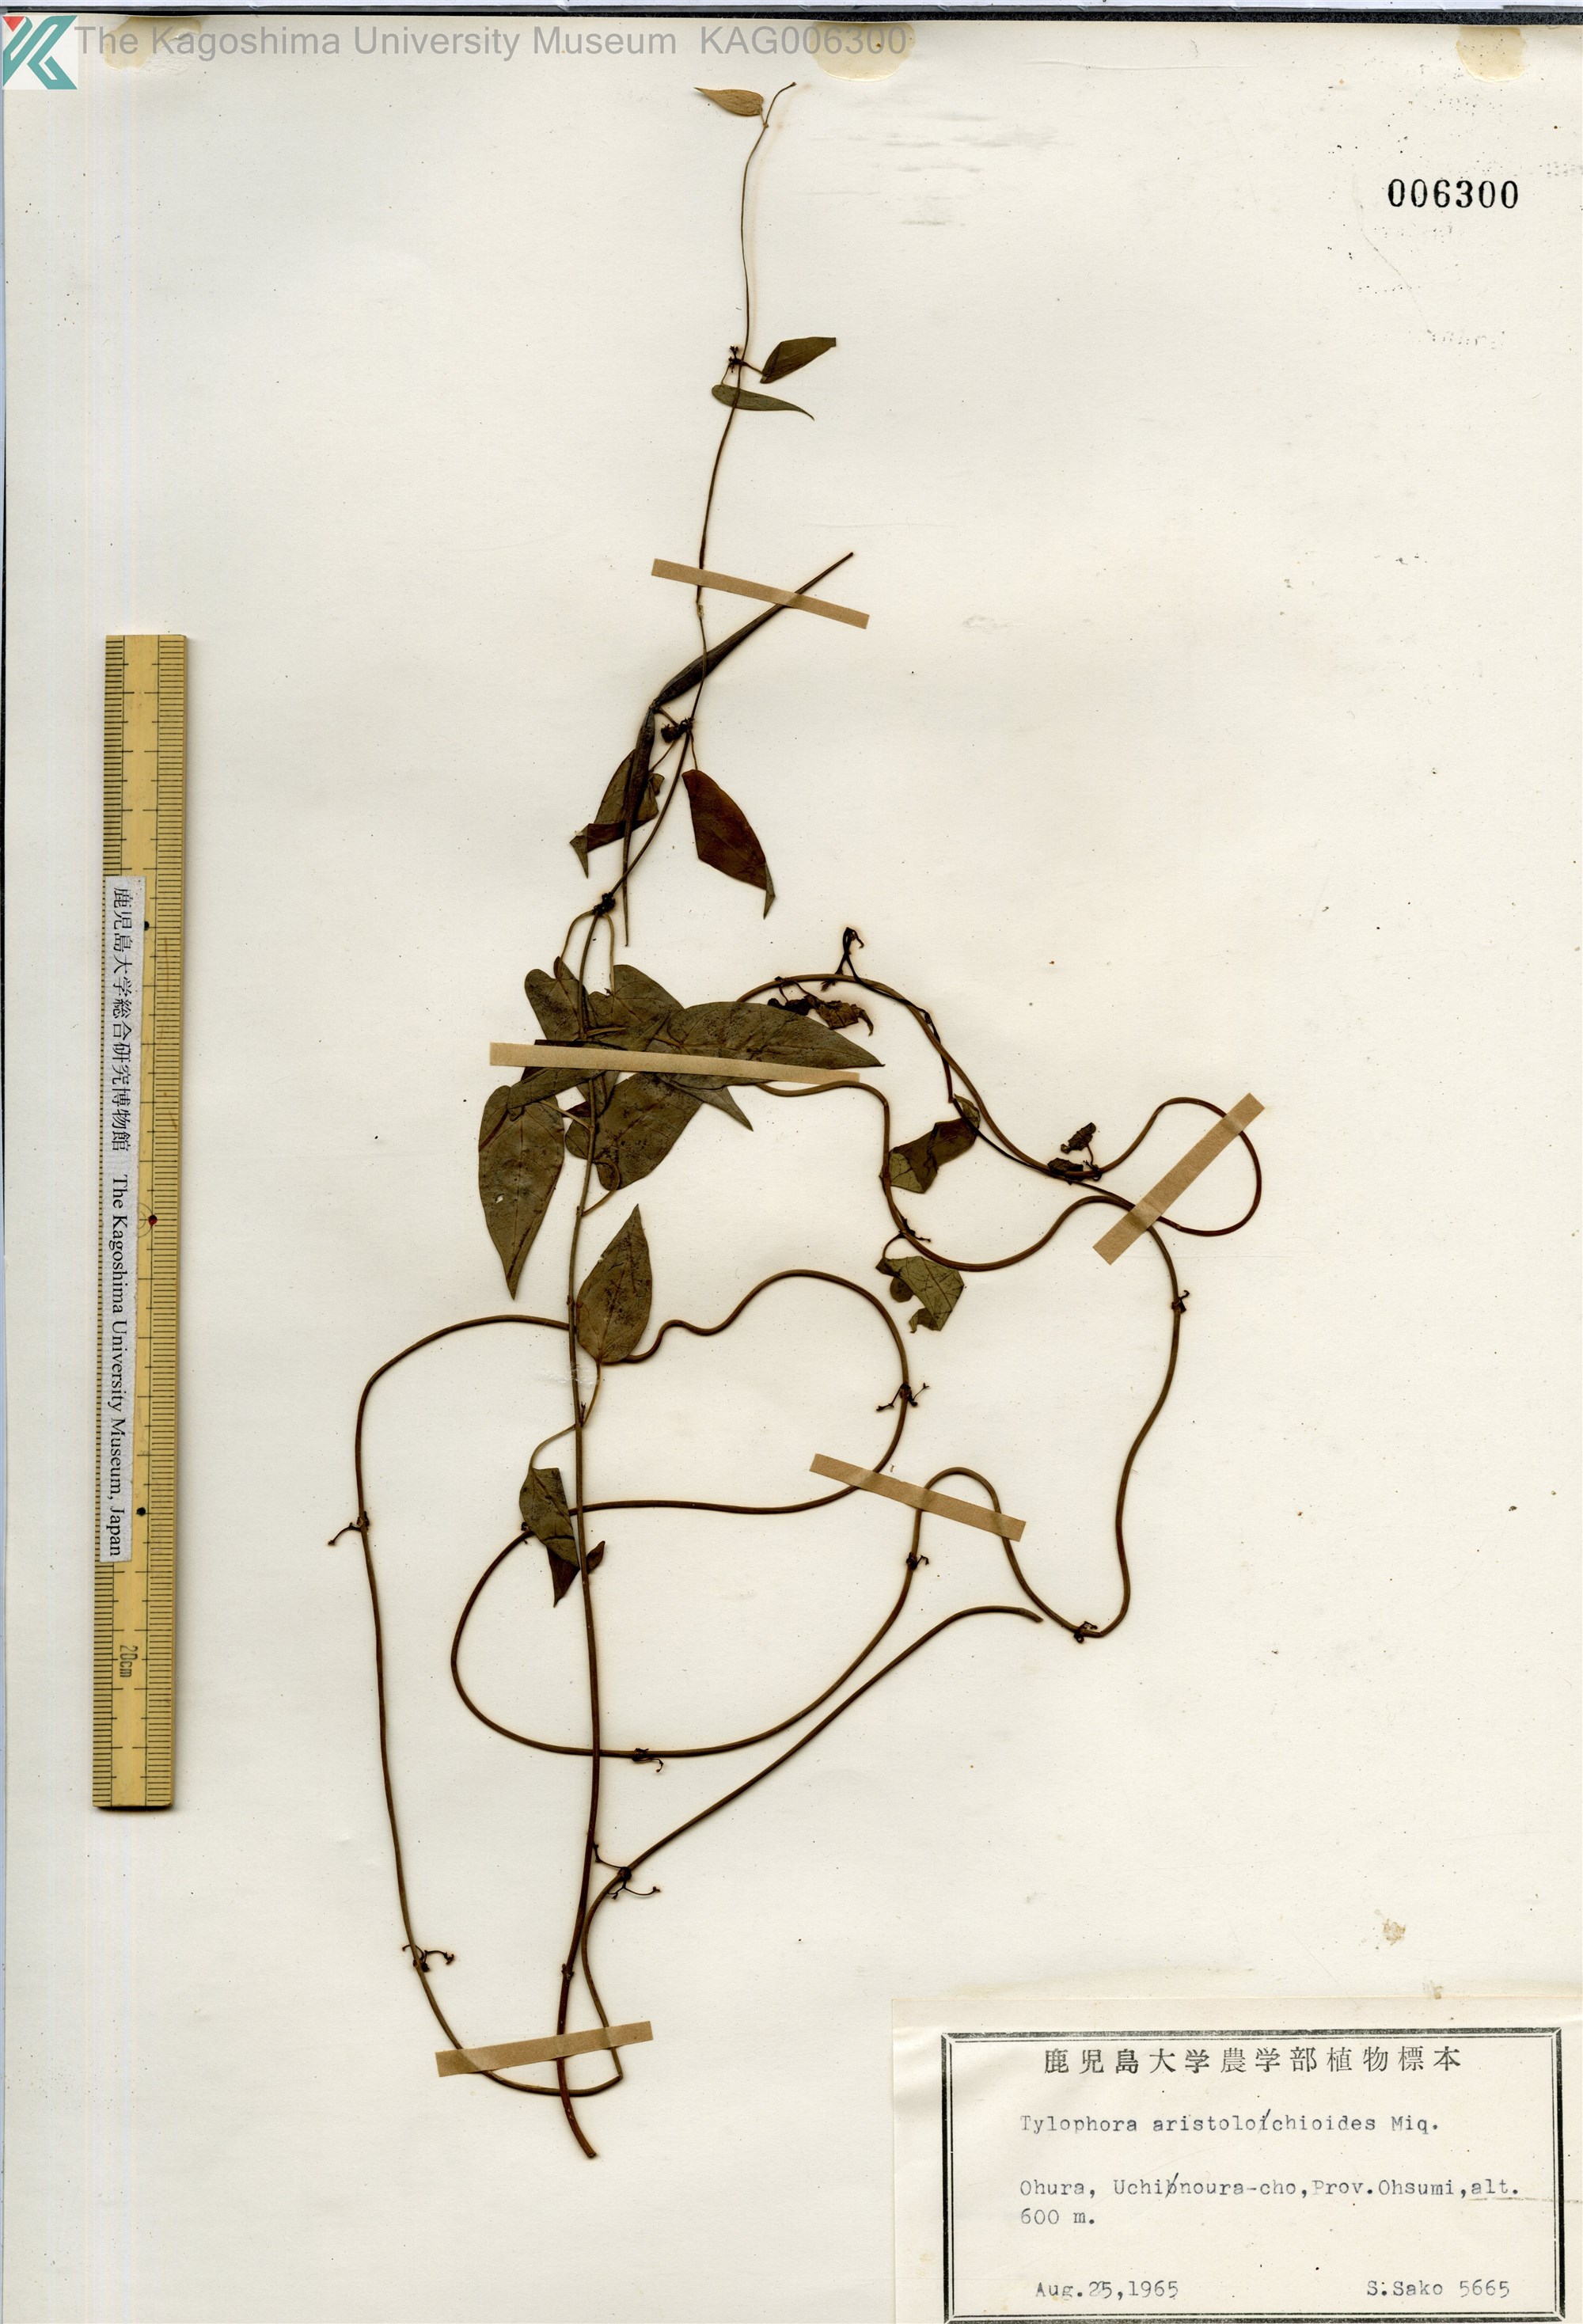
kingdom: Plantae
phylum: Tracheophyta
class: Magnoliopsida
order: Gentianales
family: Apocynaceae
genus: Vincetoxicum
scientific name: Vincetoxicum aristolochioides
